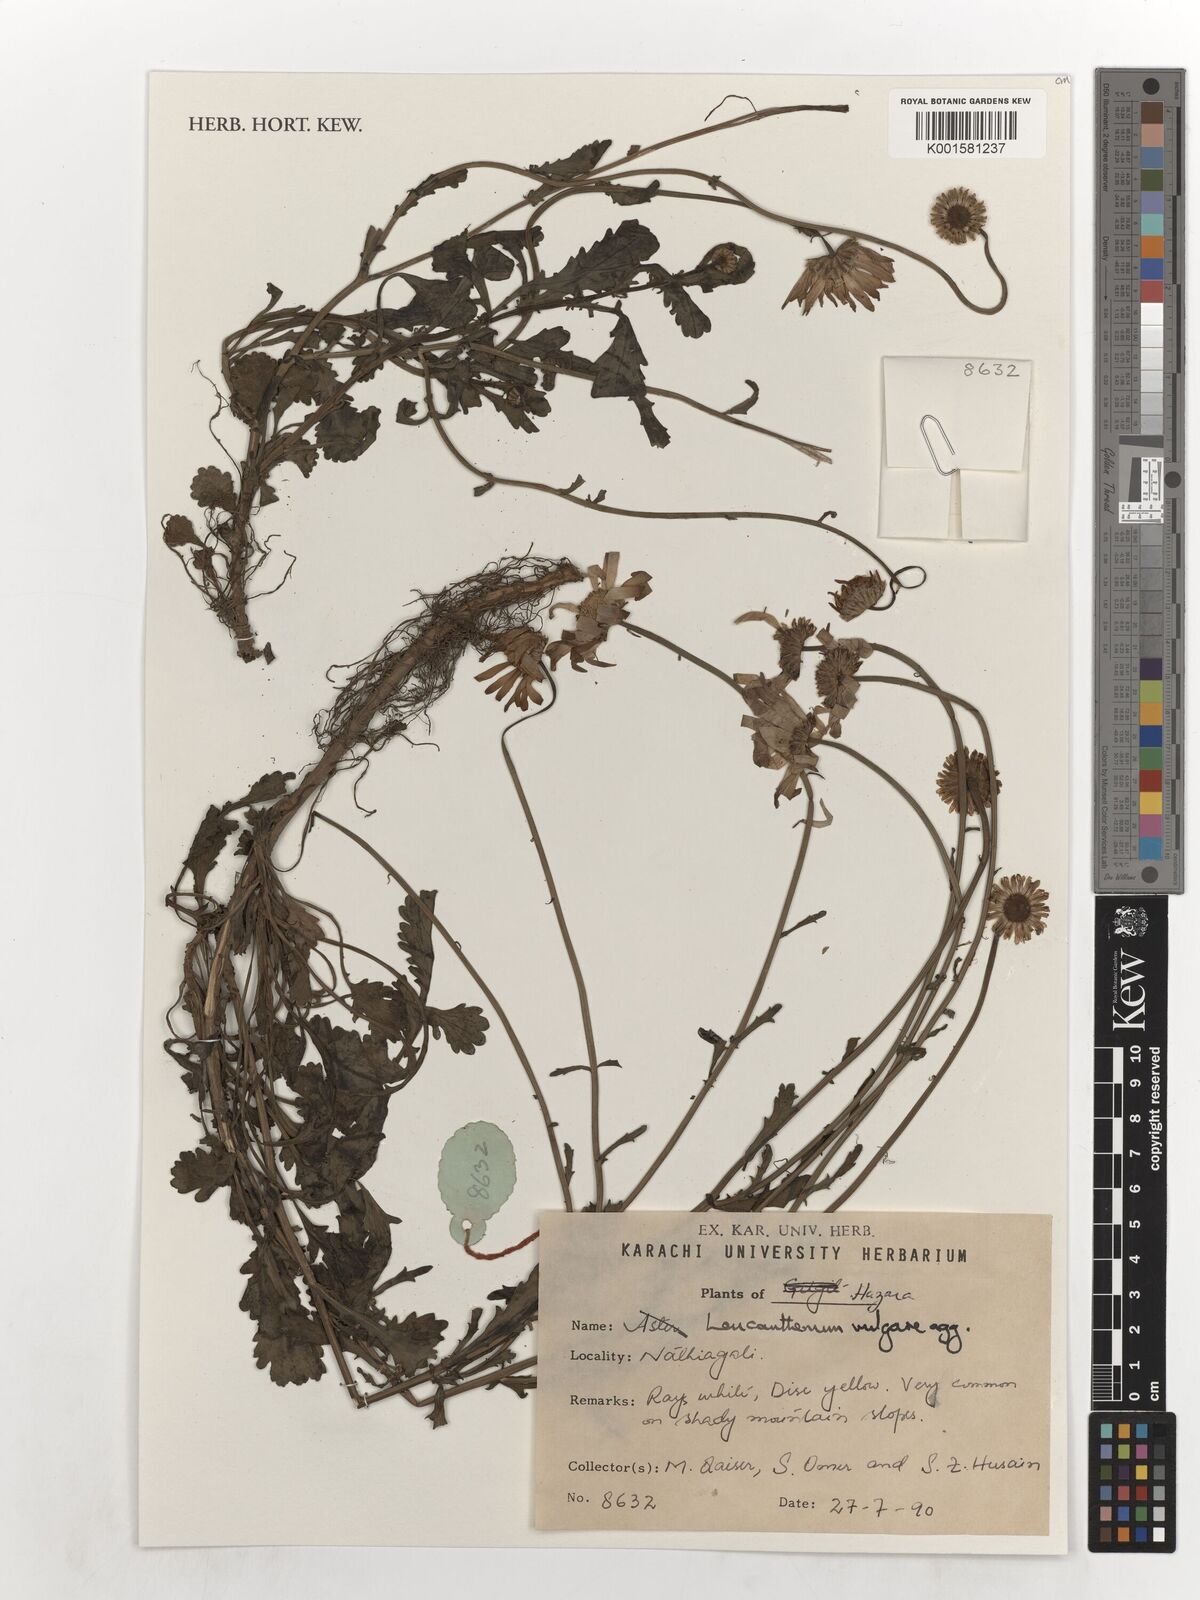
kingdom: Plantae
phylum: Tracheophyta
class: Magnoliopsida
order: Asterales
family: Asteraceae
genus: Leucanthemum
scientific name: Leucanthemum vulgare
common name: Oxeye daisy
